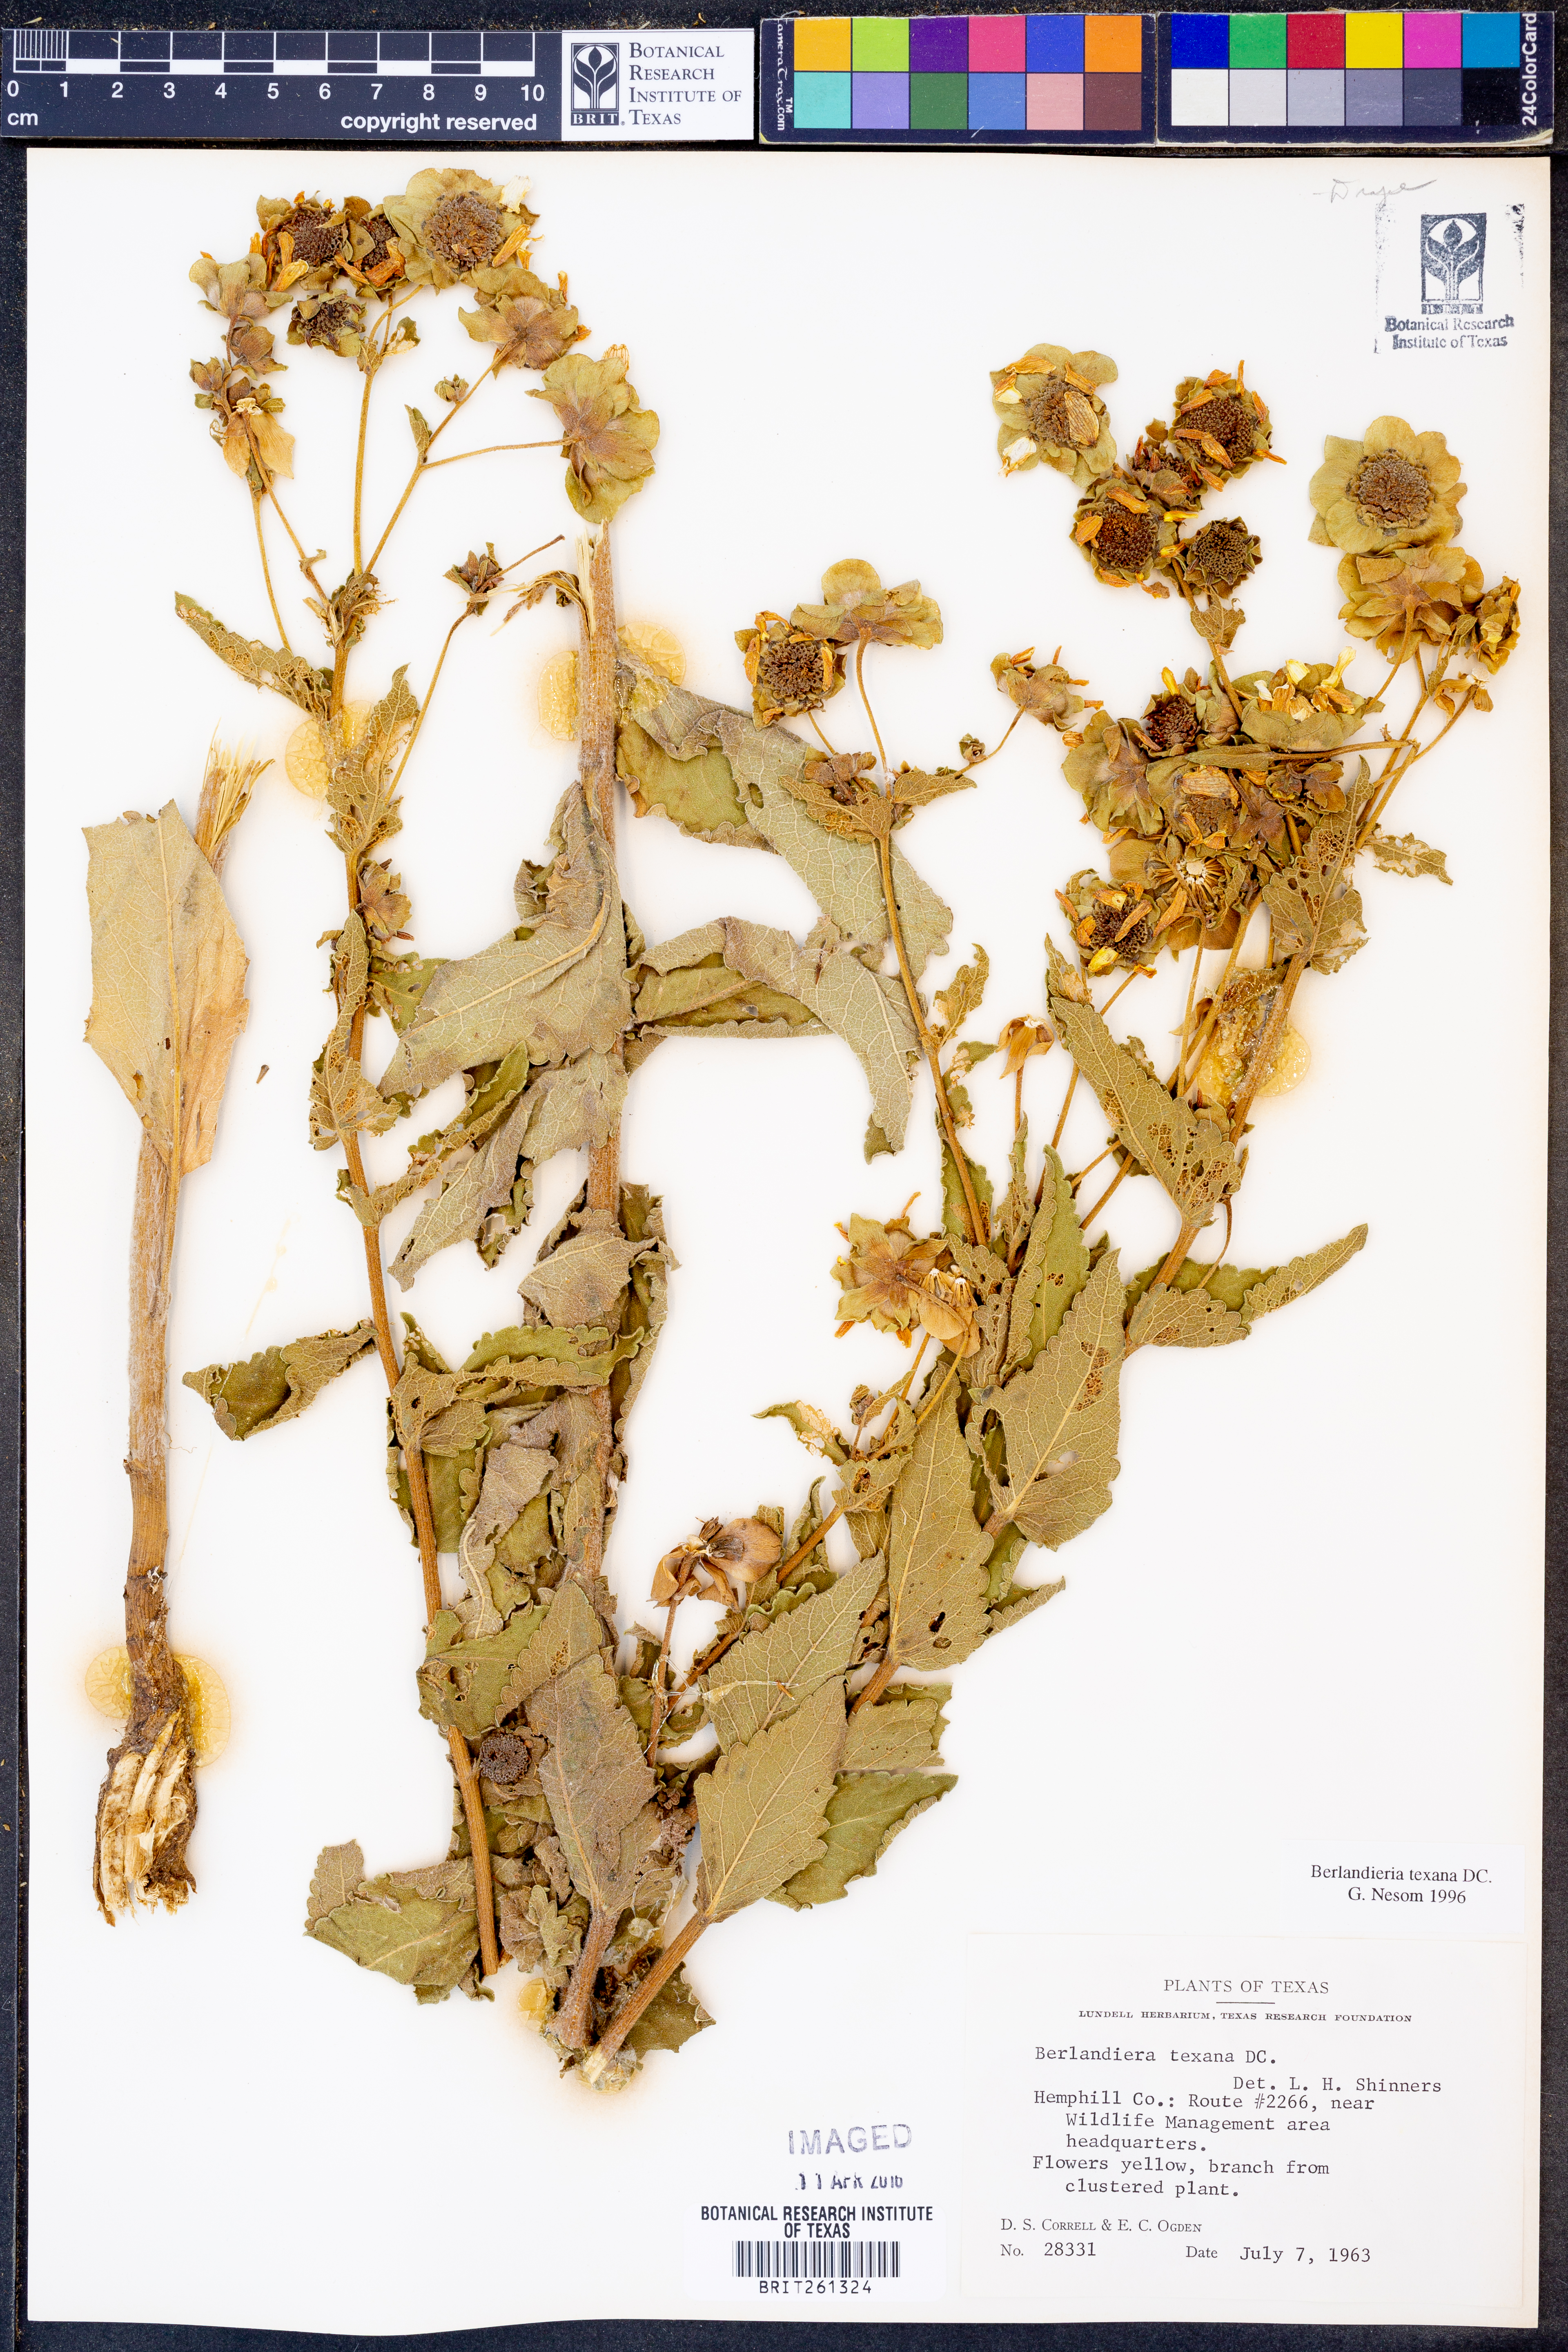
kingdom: Plantae
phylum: Tracheophyta
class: Magnoliopsida
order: Asterales
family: Asteraceae
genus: Berlandiera
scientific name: Berlandiera texana
